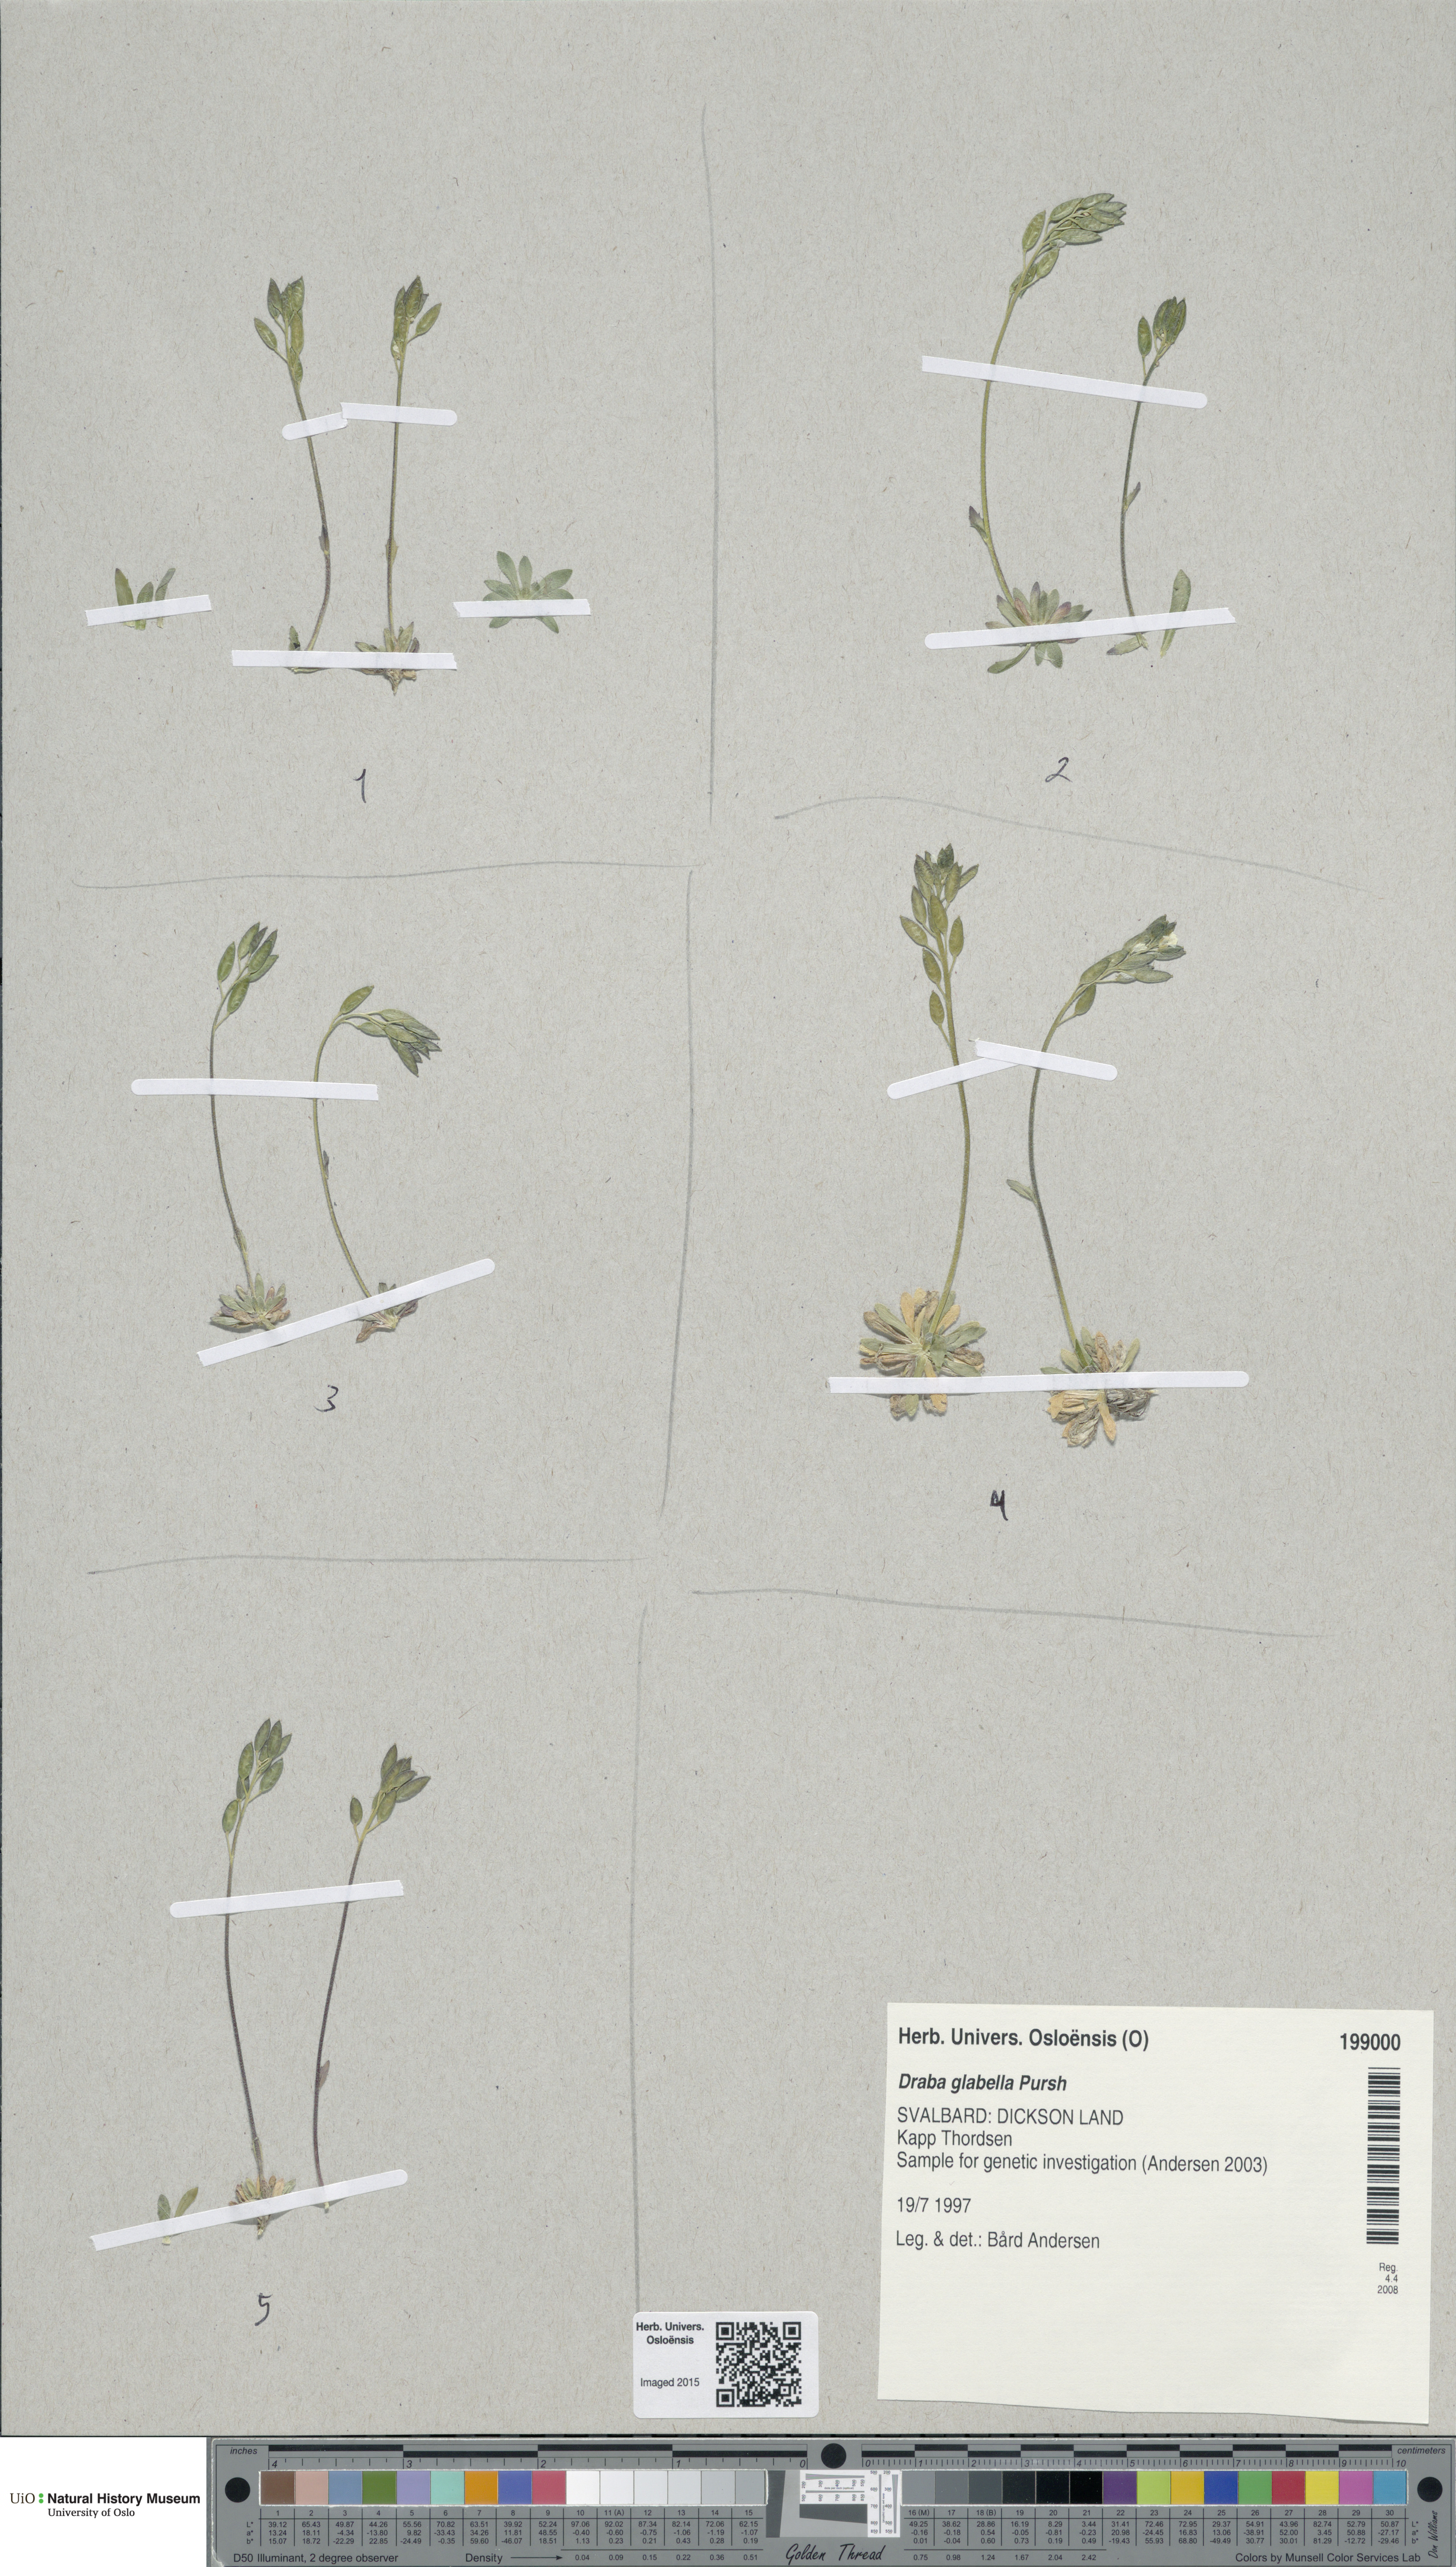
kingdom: Plantae
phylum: Tracheophyta
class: Magnoliopsida
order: Brassicales
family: Brassicaceae
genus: Draba
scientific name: Draba glabella
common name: Glaucous draba
